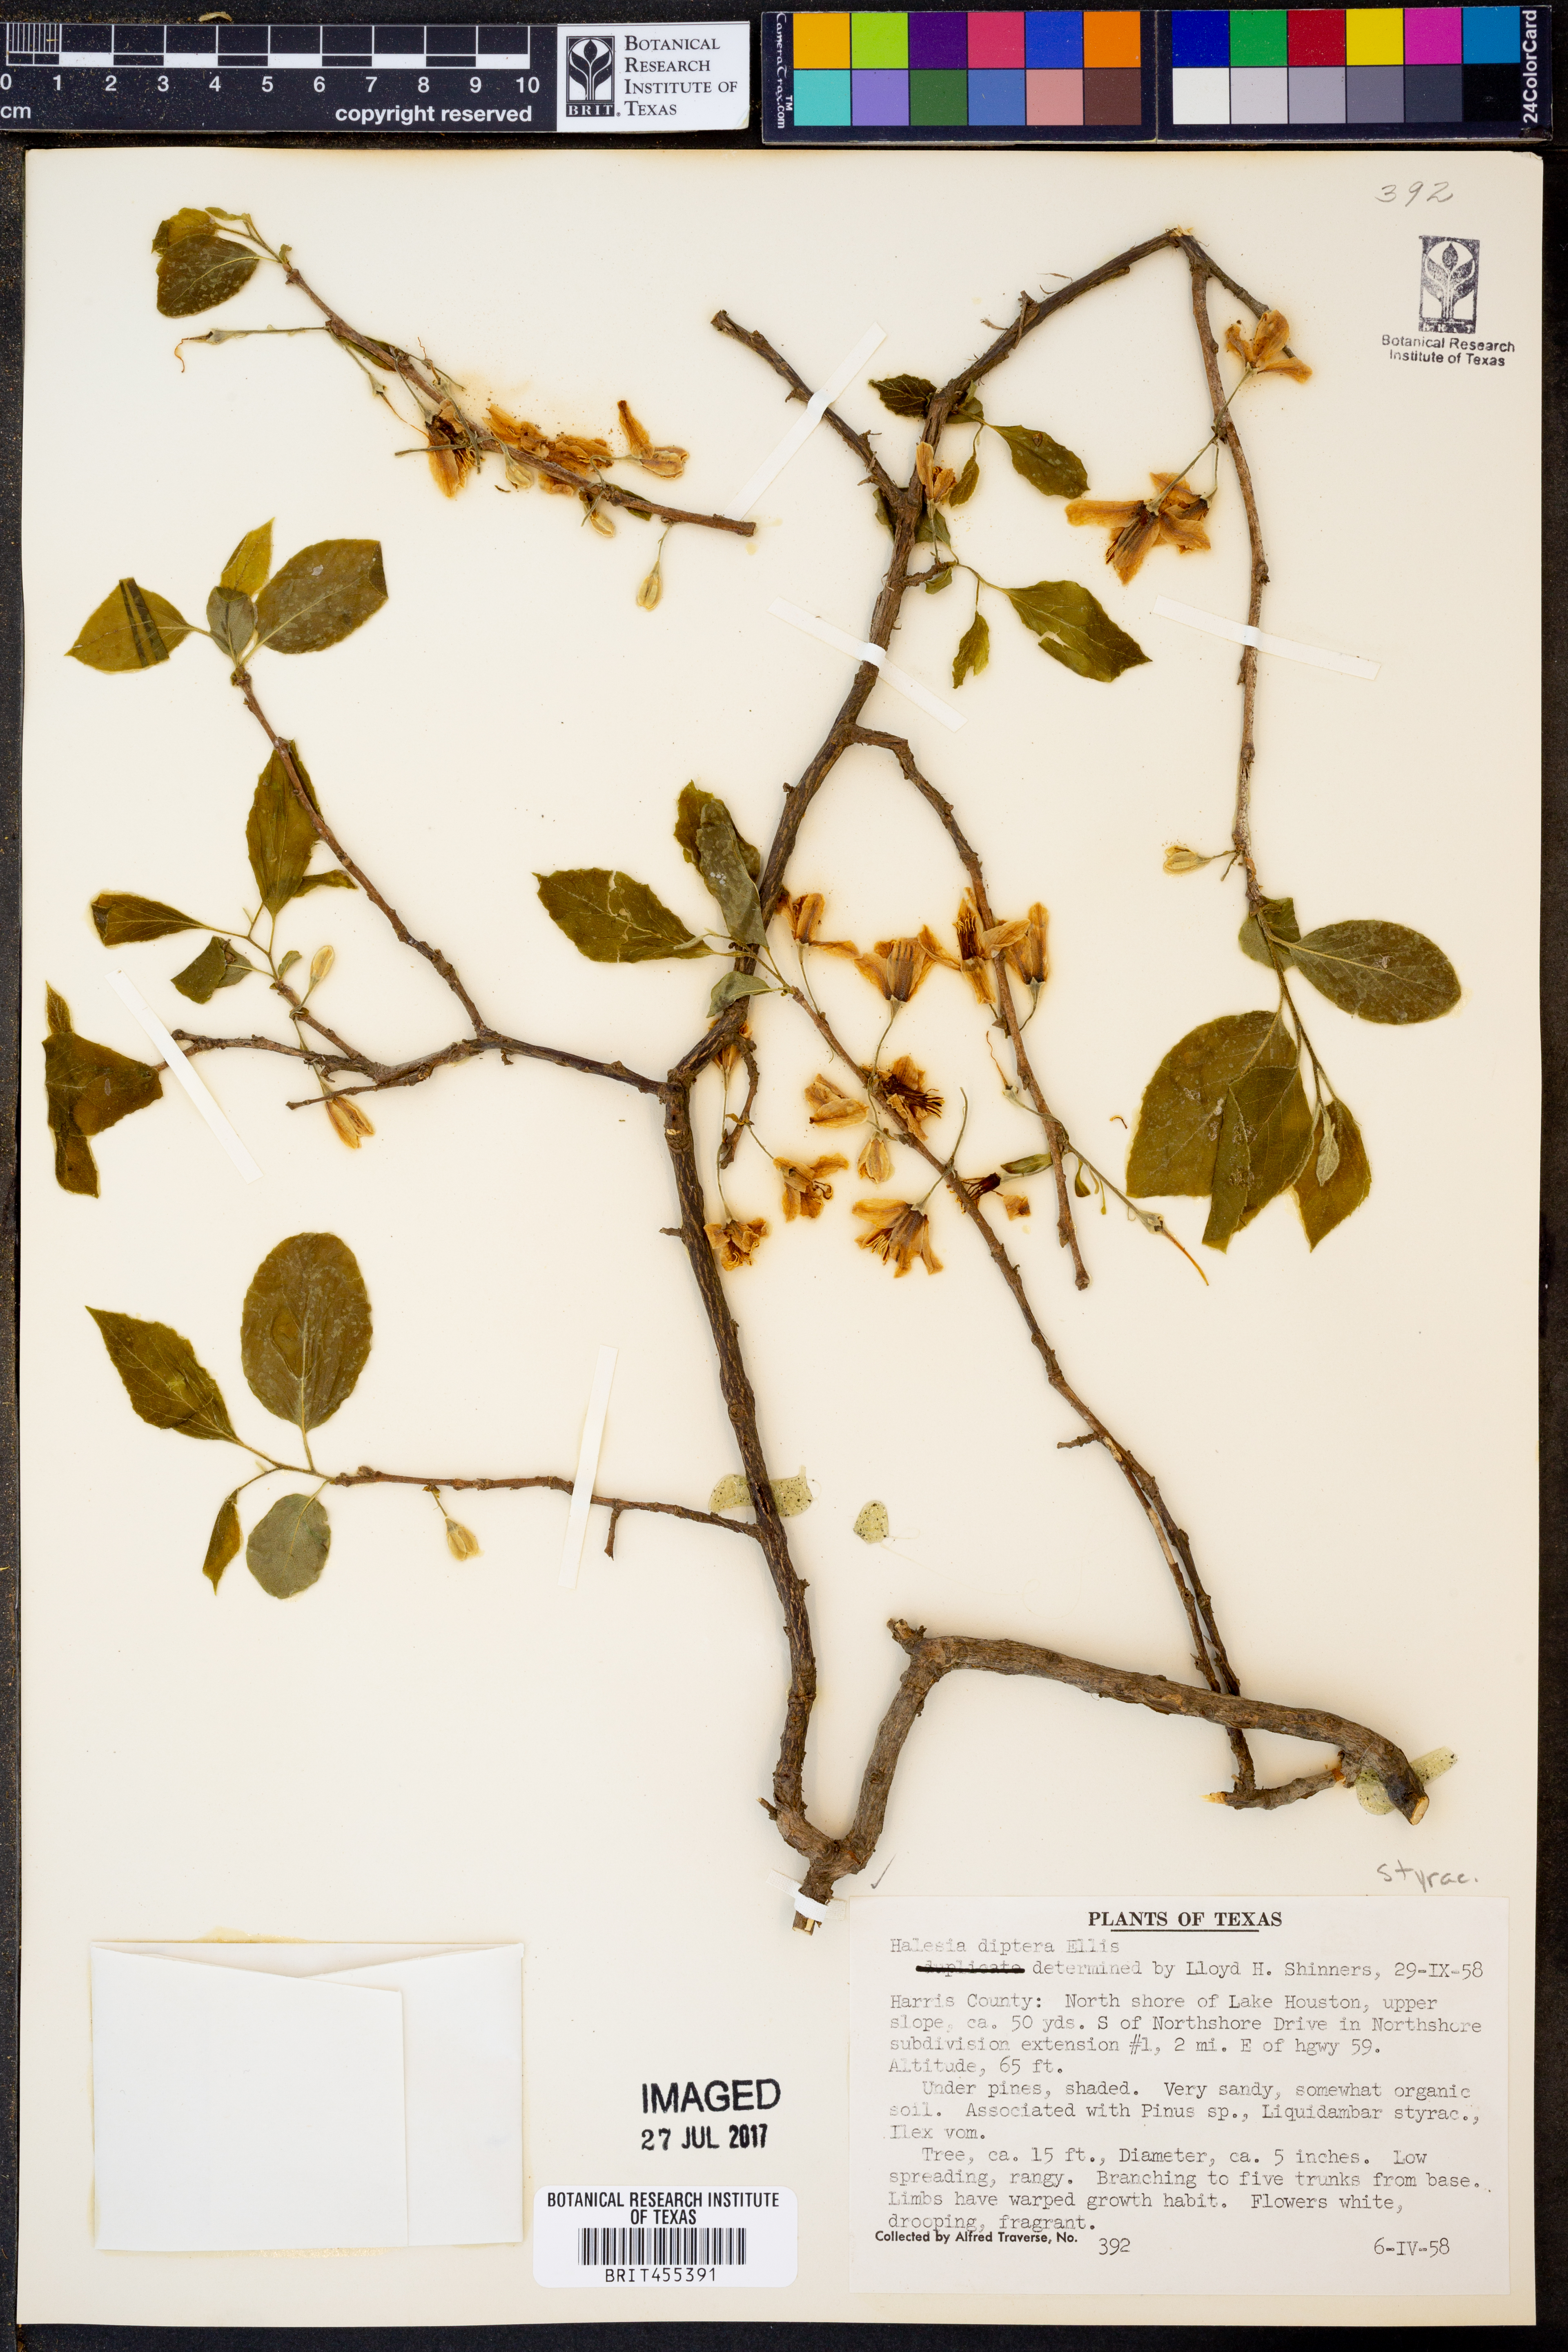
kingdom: Plantae
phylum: Tracheophyta
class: Magnoliopsida
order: Ericales
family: Styracaceae
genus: Halesia
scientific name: Halesia diptera
